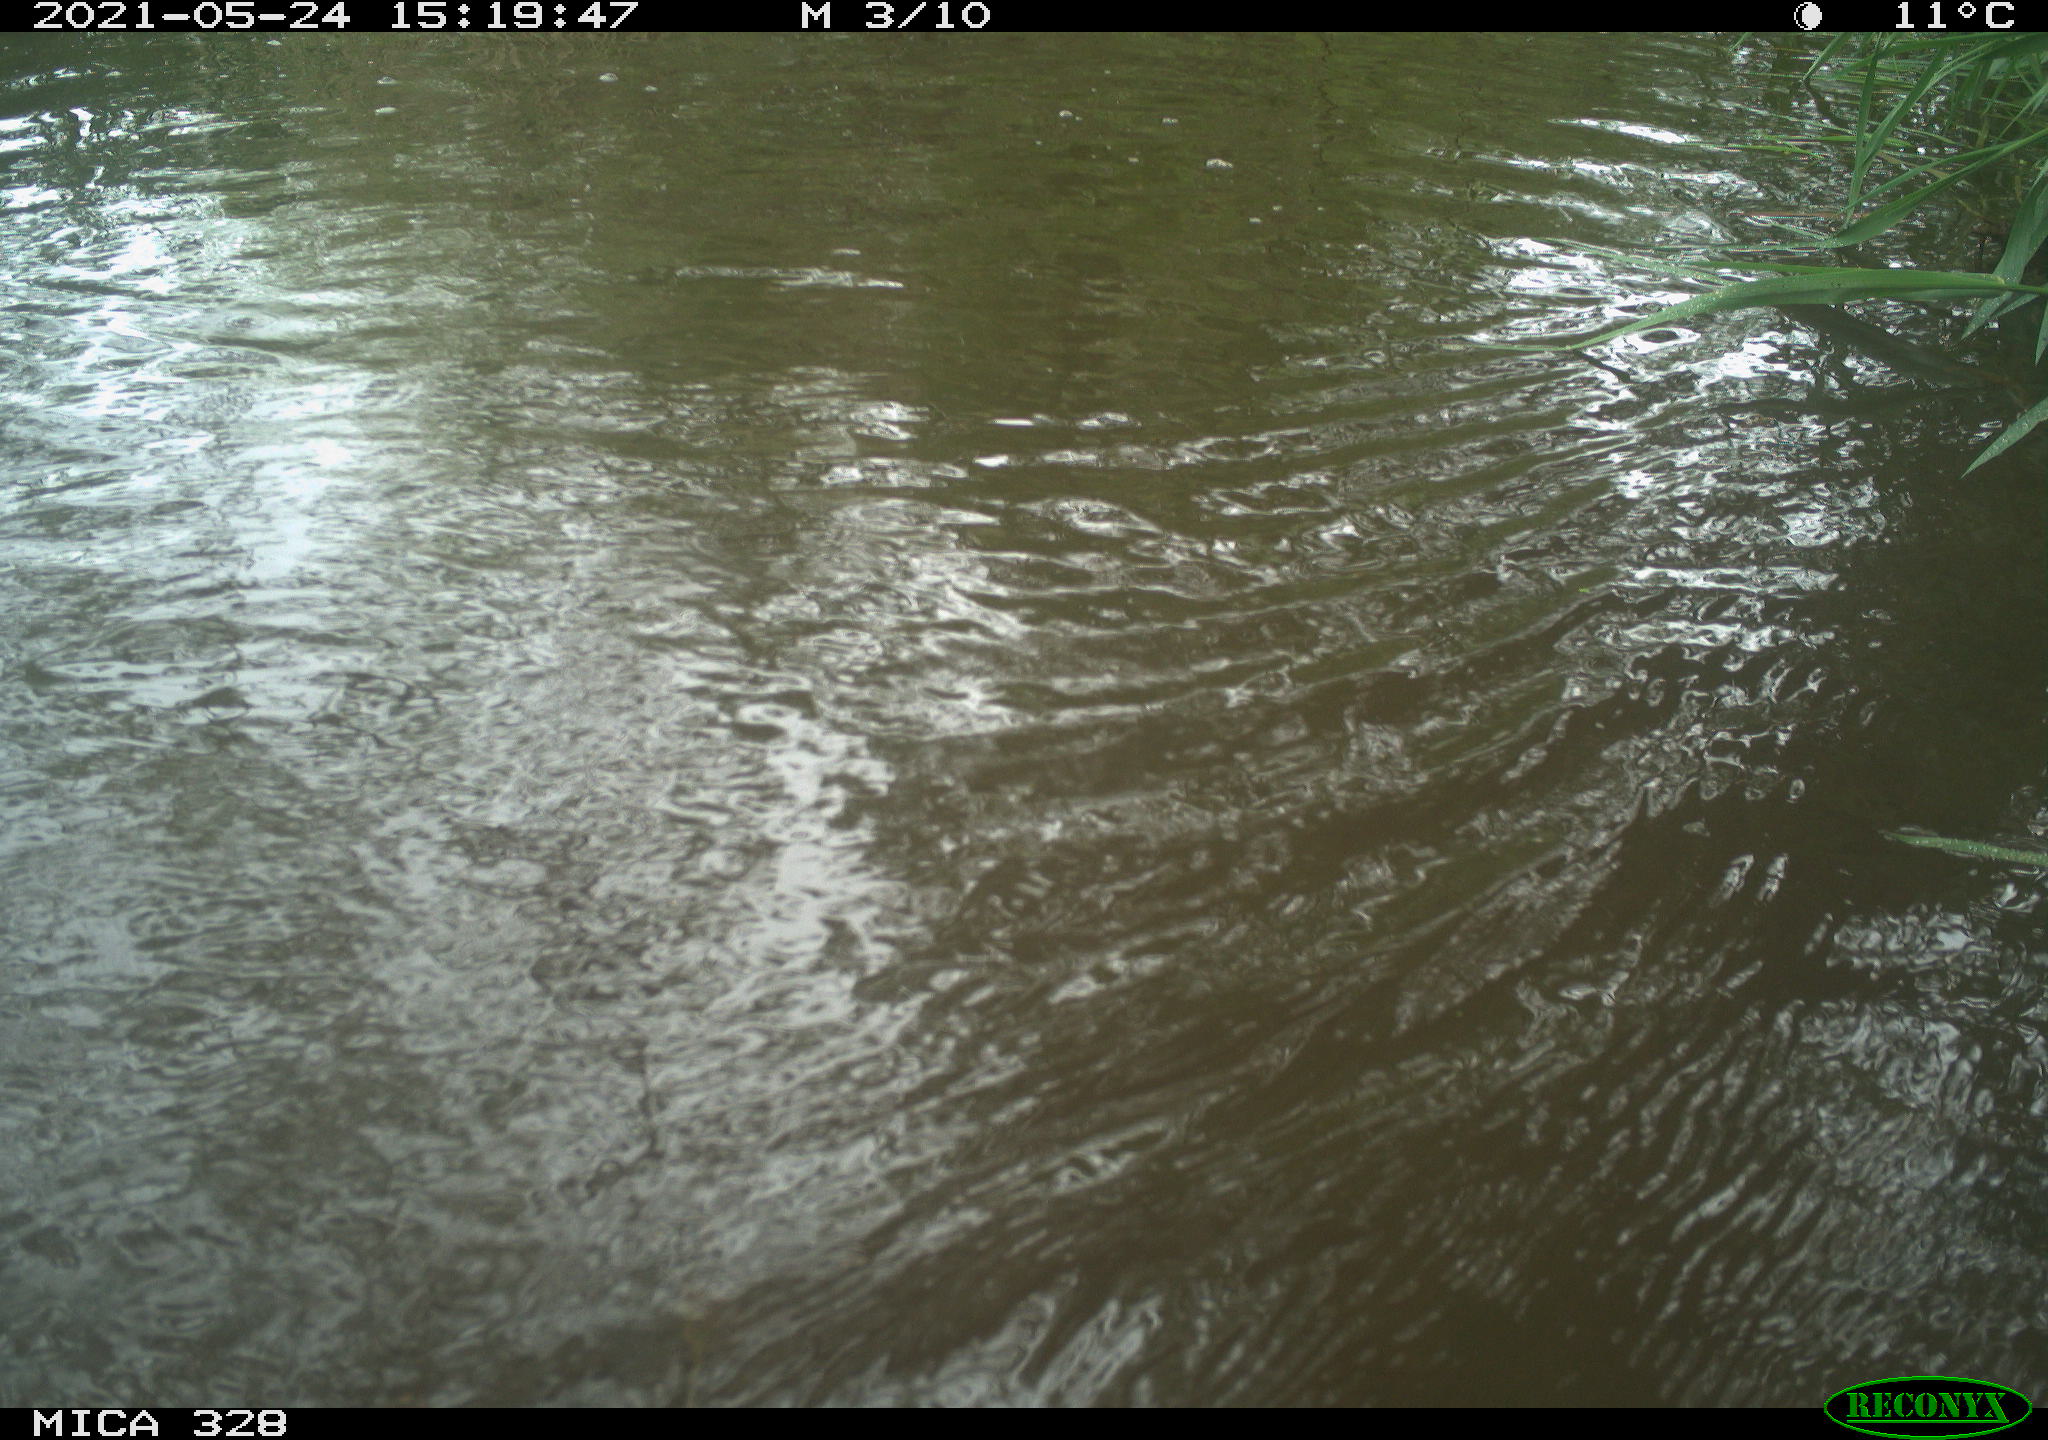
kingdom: Animalia
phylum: Chordata
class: Aves
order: Anseriformes
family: Anatidae
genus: Aix
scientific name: Aix galericulata
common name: Mandarin duck
